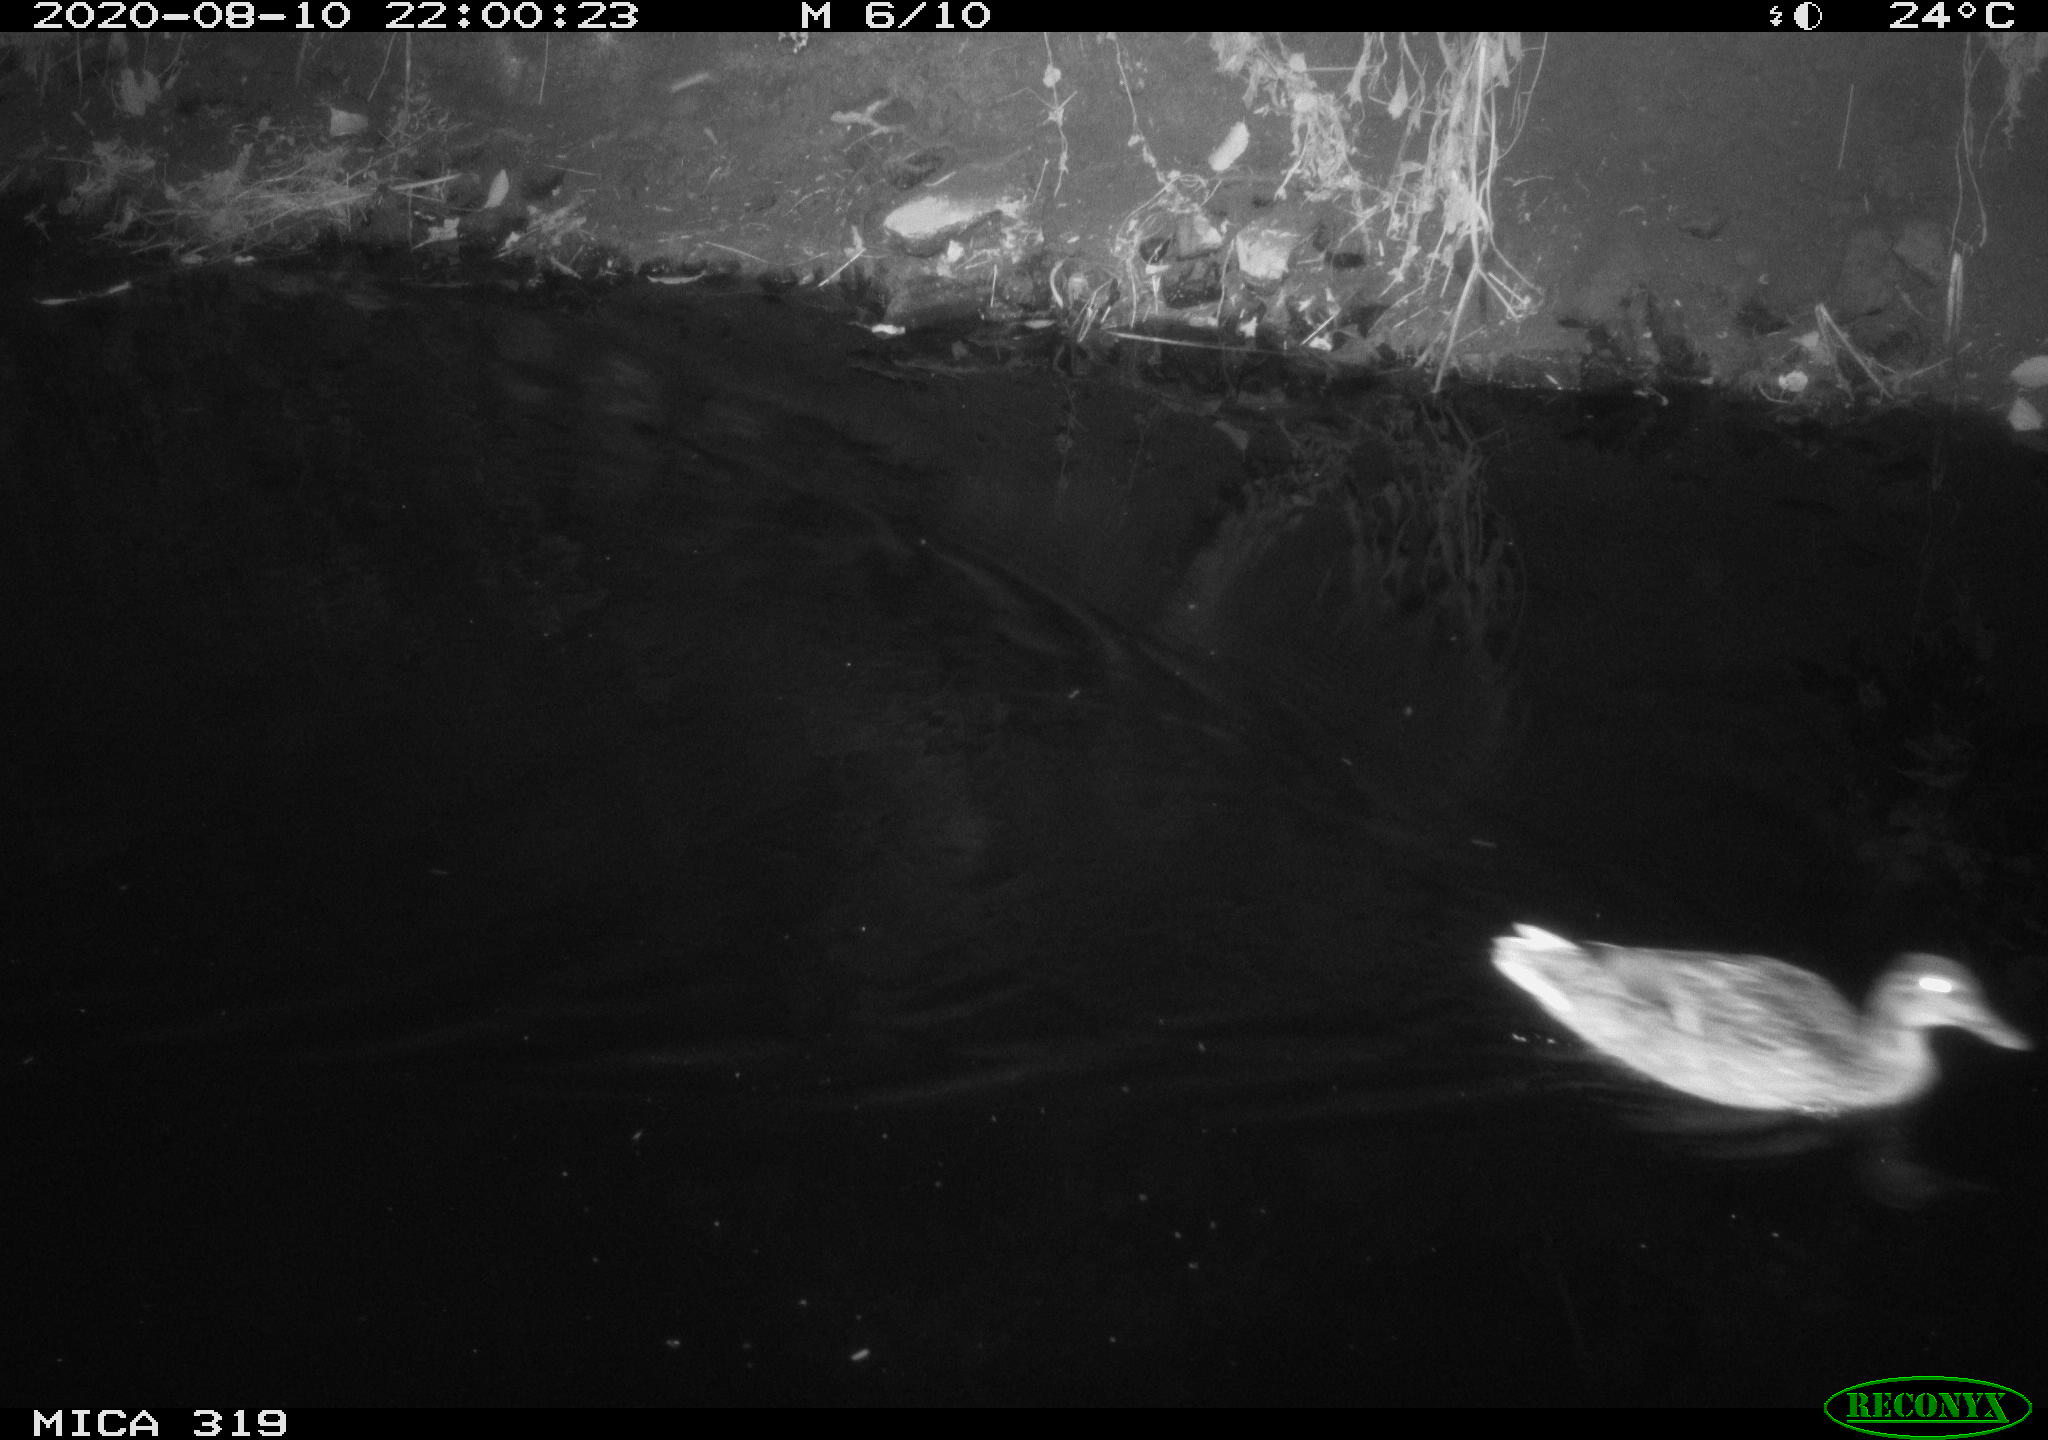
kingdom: Animalia
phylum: Chordata
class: Aves
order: Anseriformes
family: Anatidae
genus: Anas
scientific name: Anas platyrhynchos
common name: Mallard
